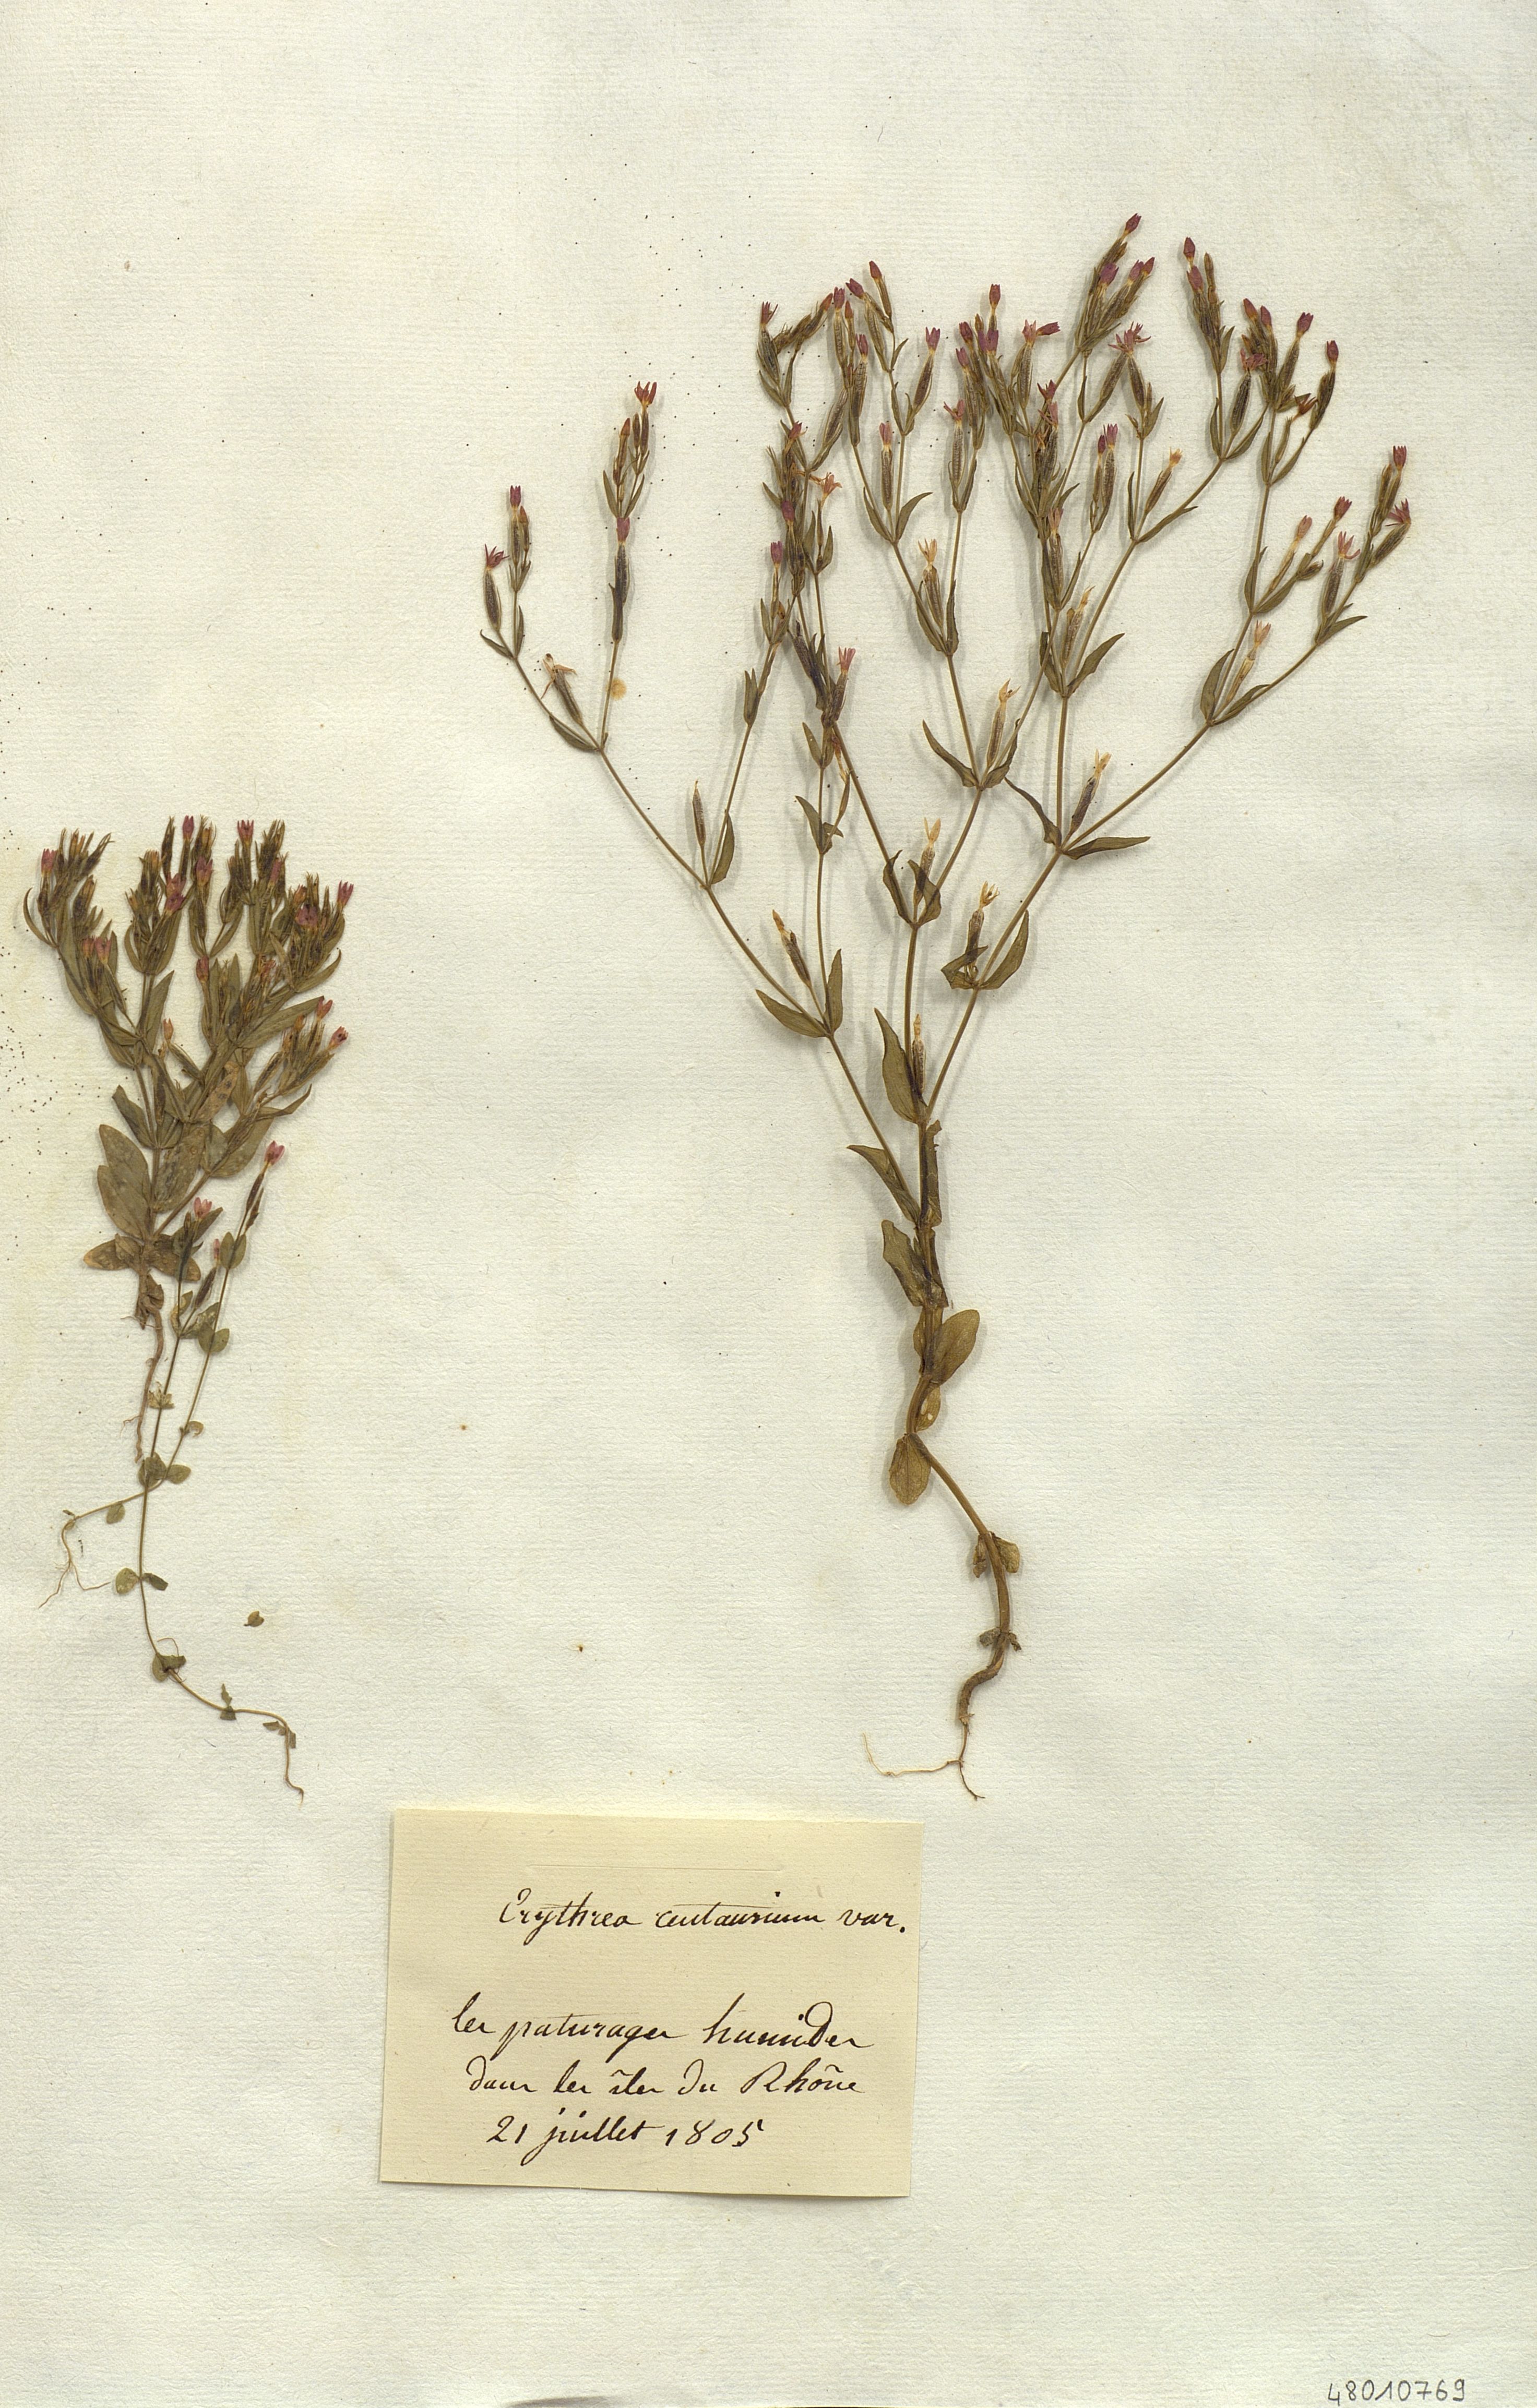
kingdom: Plantae
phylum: Tracheophyta
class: Magnoliopsida
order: Gentianales
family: Gentianaceae
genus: Centaurium
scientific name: Centaurium erythraea
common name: Common centaury
